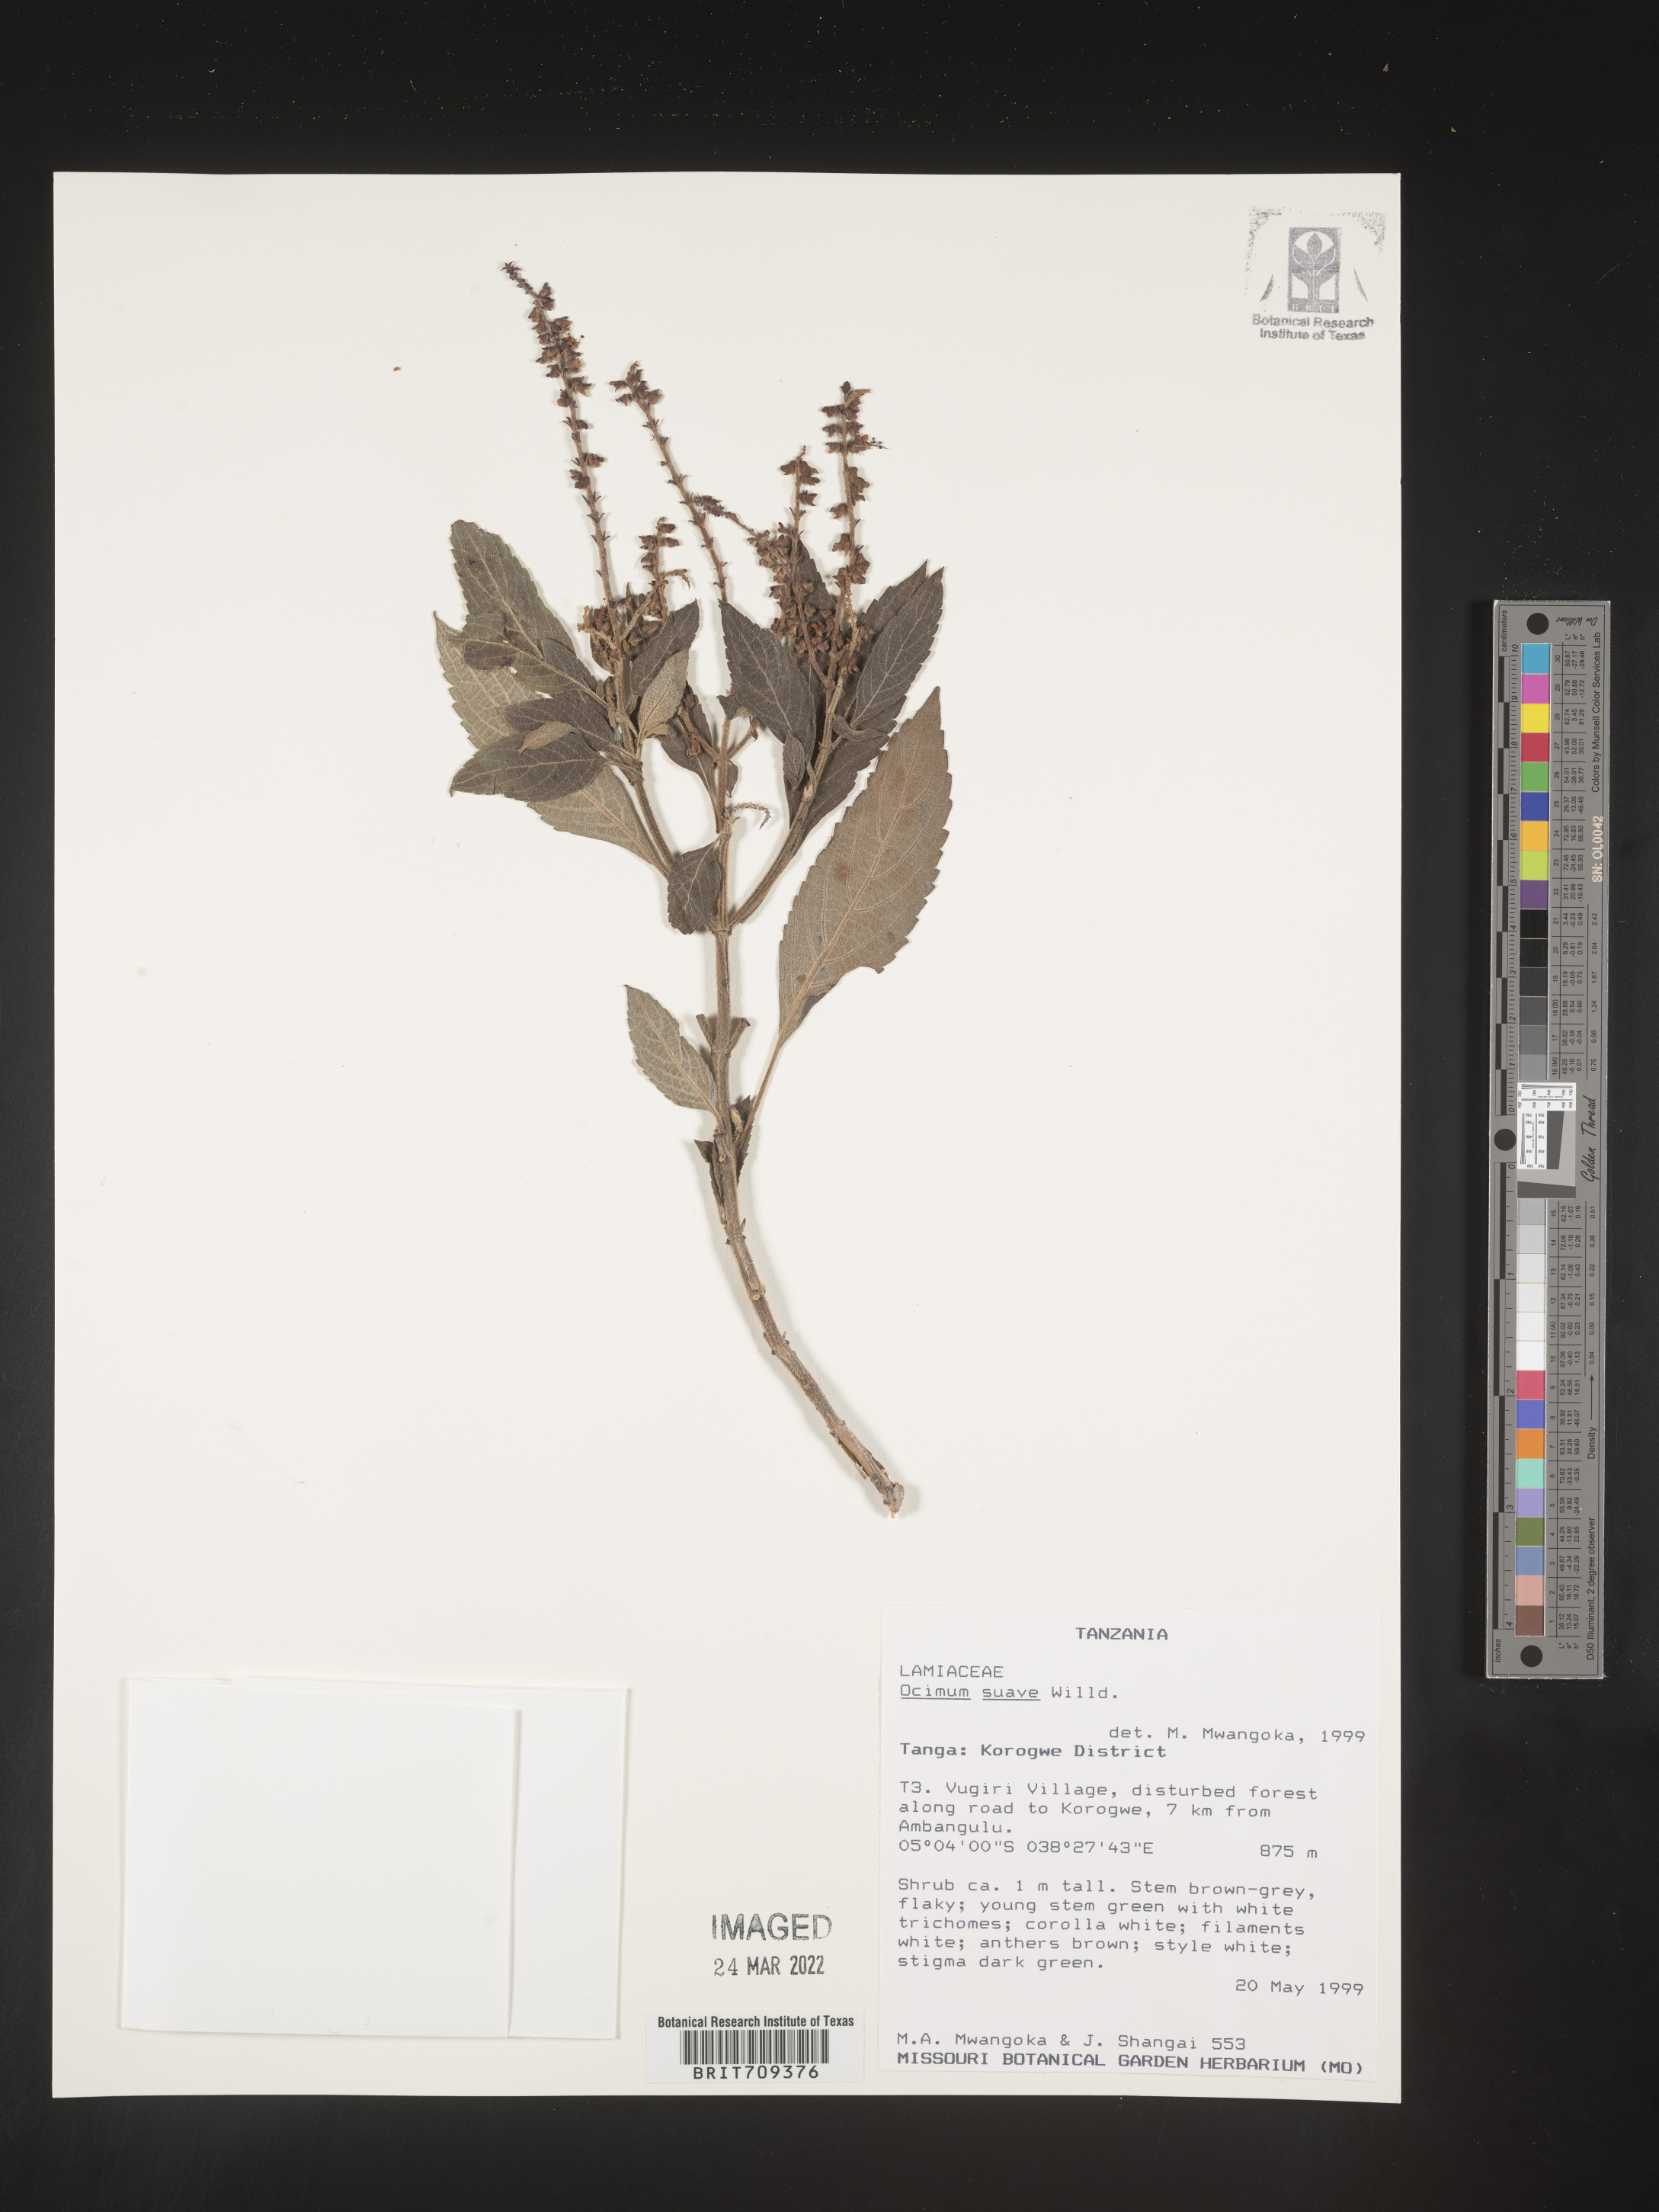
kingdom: Plantae
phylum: Tracheophyta
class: Magnoliopsida
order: Lamiales
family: Lamiaceae
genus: Ocimum
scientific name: Ocimum
